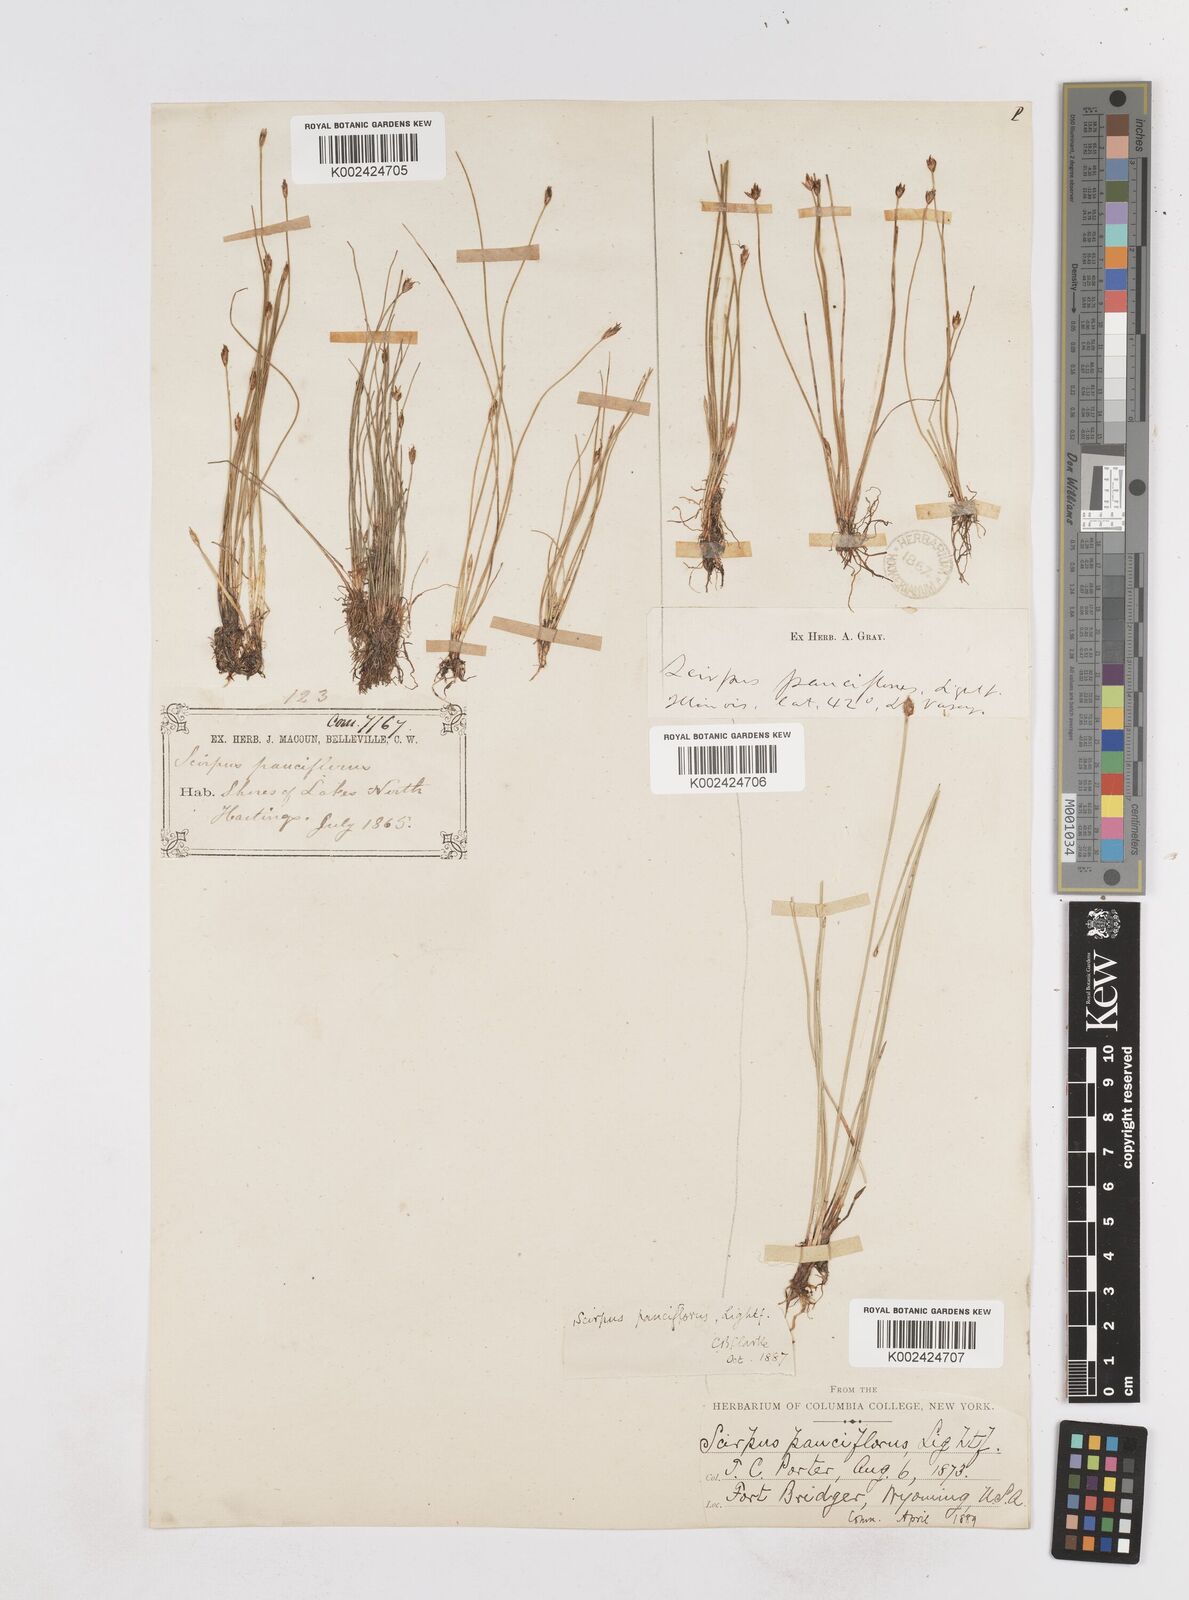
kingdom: Plantae
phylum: Tracheophyta
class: Liliopsida
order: Poales
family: Cyperaceae
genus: Eleocharis
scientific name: Eleocharis quinqueflora
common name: Few-flowered spike-rush
